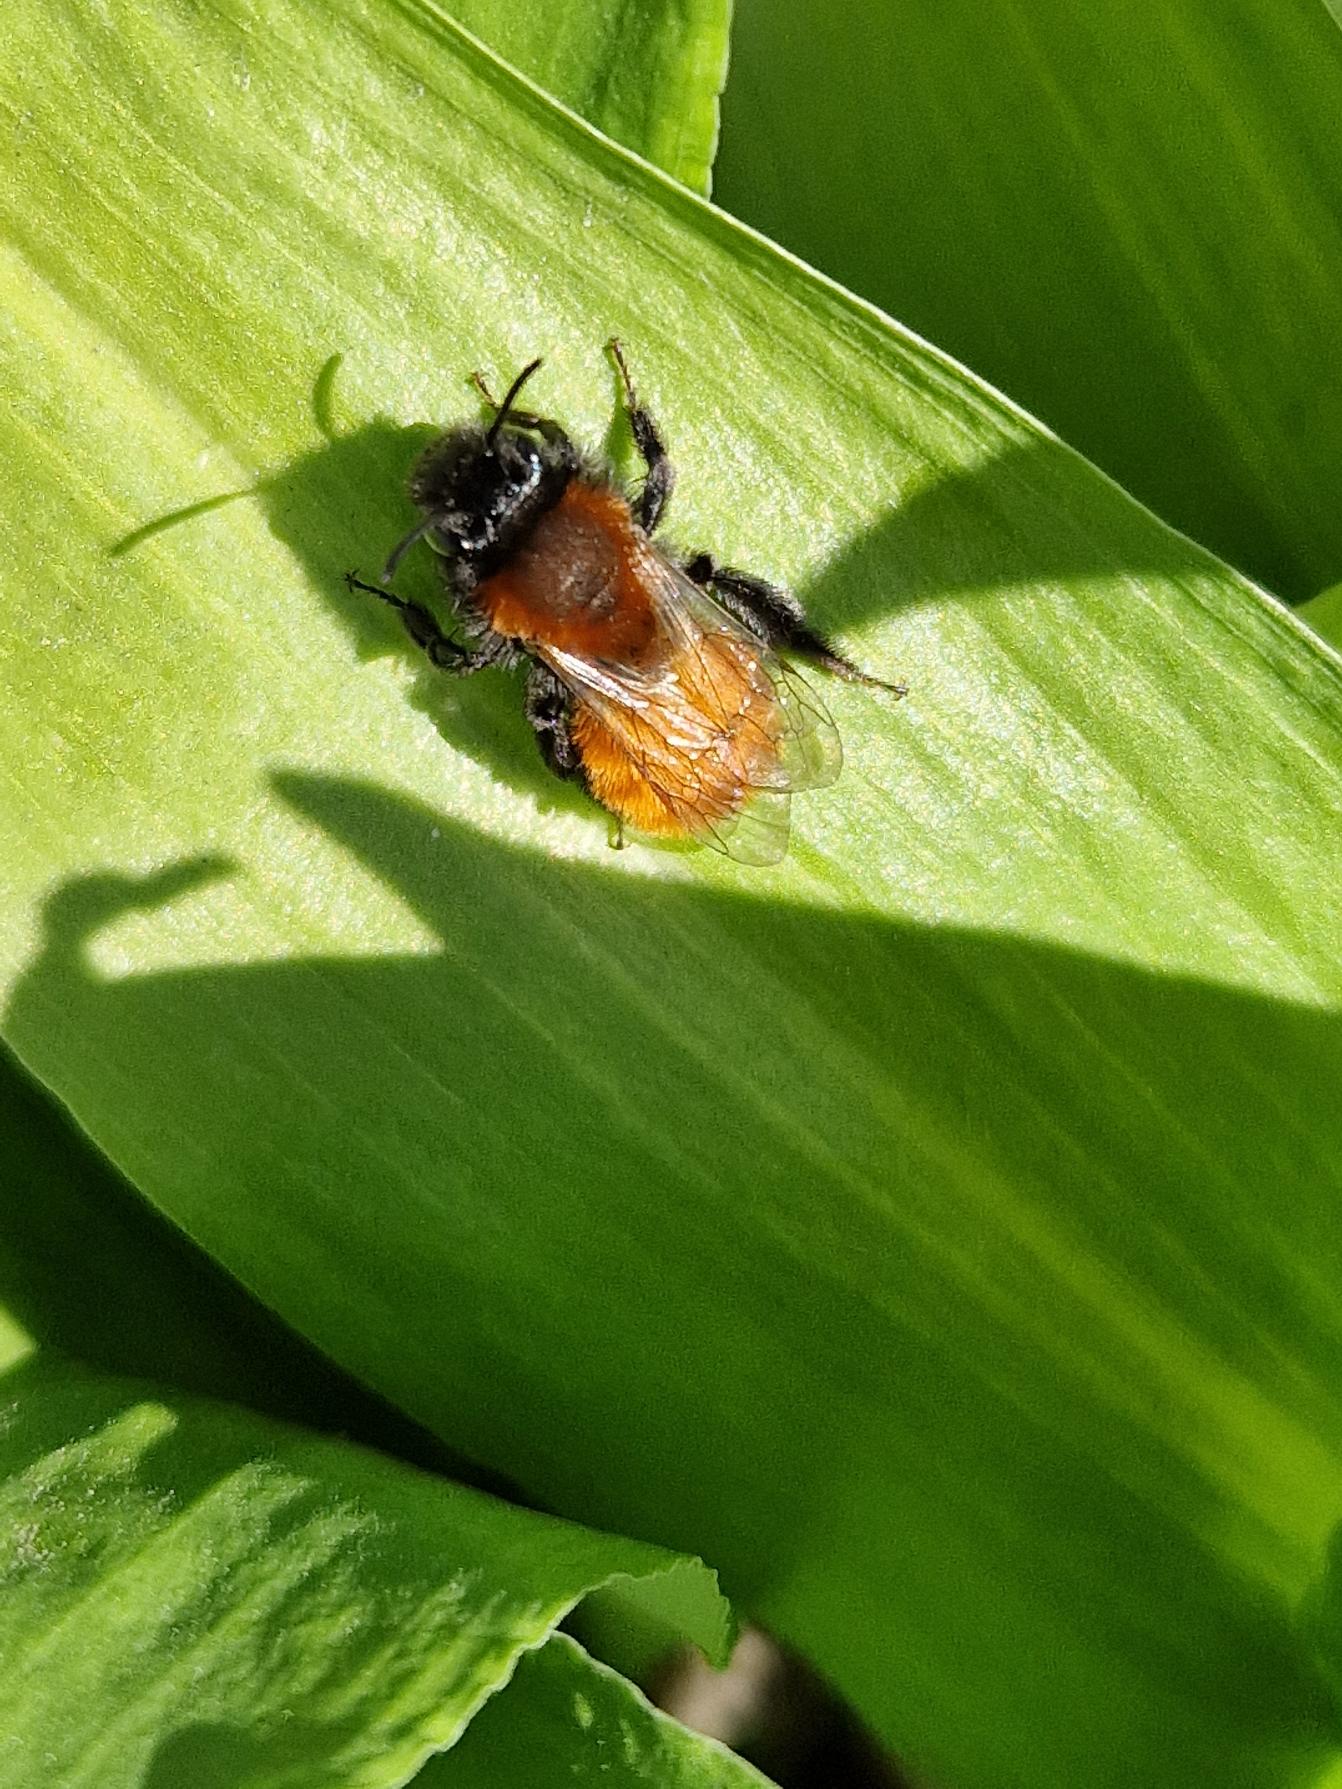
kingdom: Animalia
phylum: Arthropoda
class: Insecta
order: Hymenoptera
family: Andrenidae
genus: Andrena
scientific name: Andrena fulva
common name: Rødpelset jordbi
